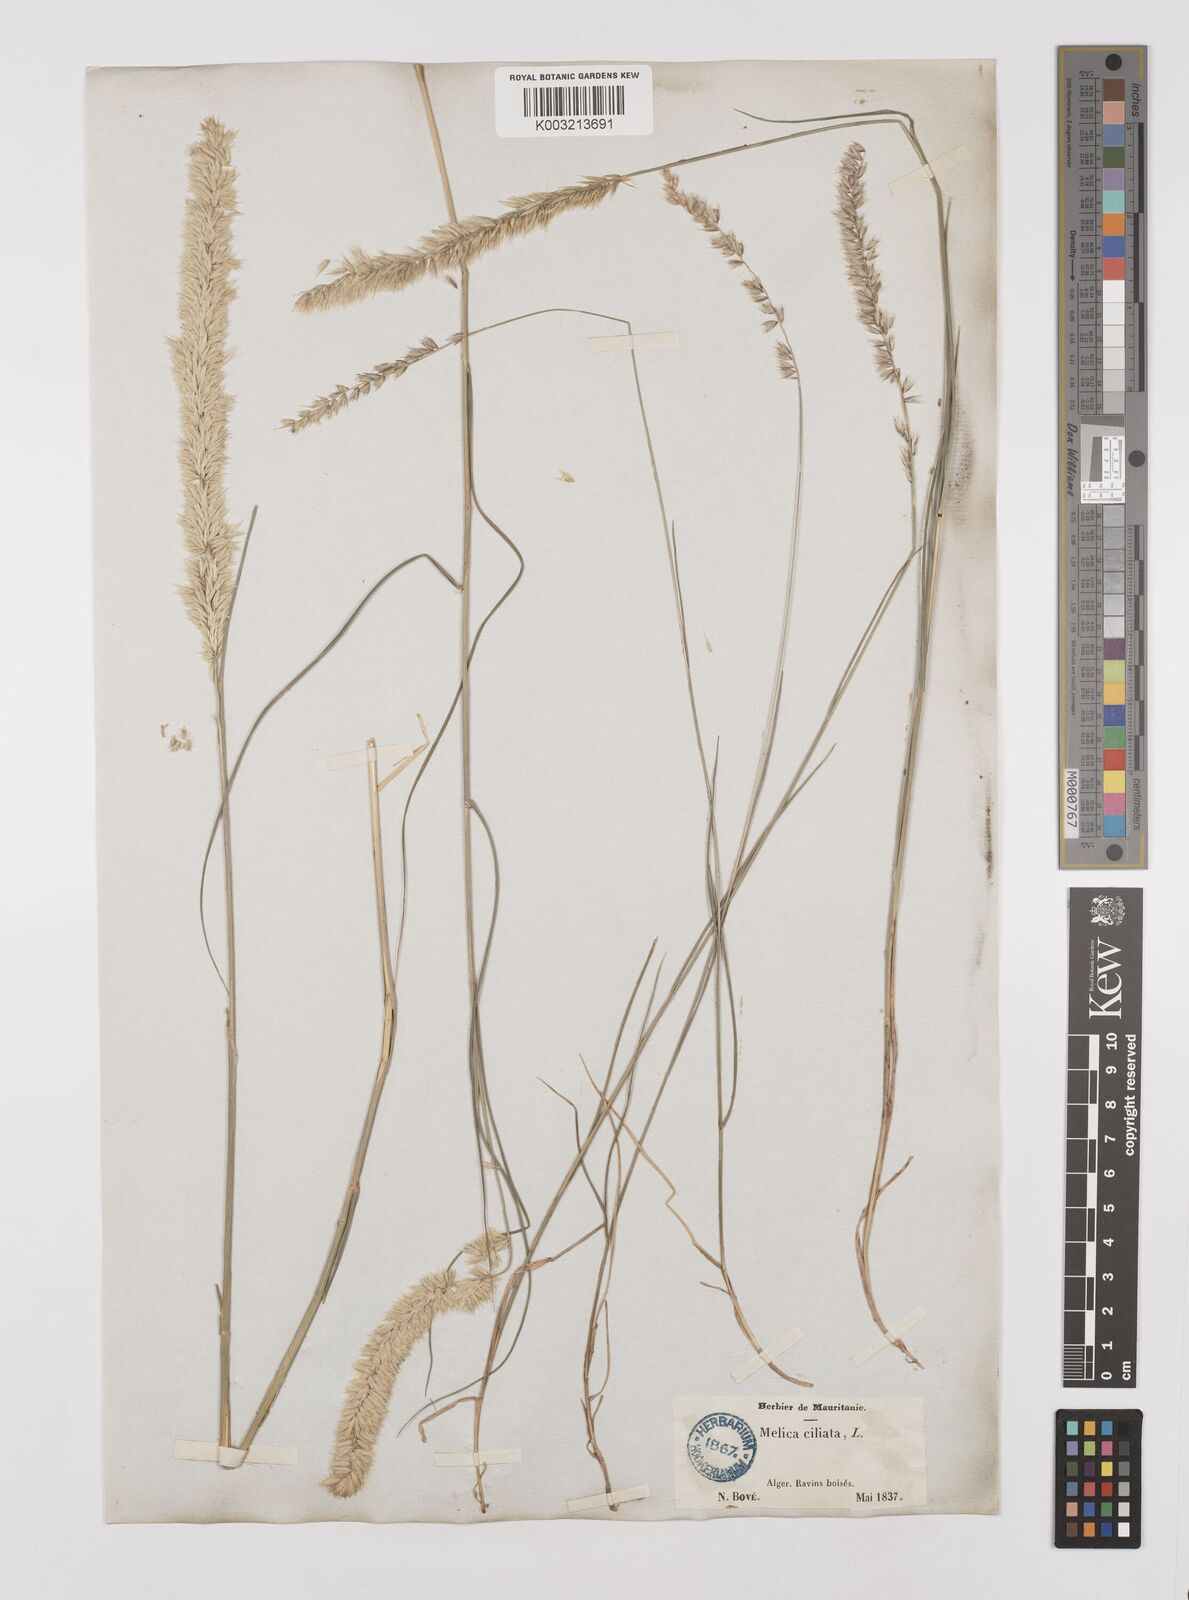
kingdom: Plantae
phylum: Tracheophyta
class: Liliopsida
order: Poales
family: Poaceae
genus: Melica
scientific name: Melica ciliata
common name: Hairy melicgrass
